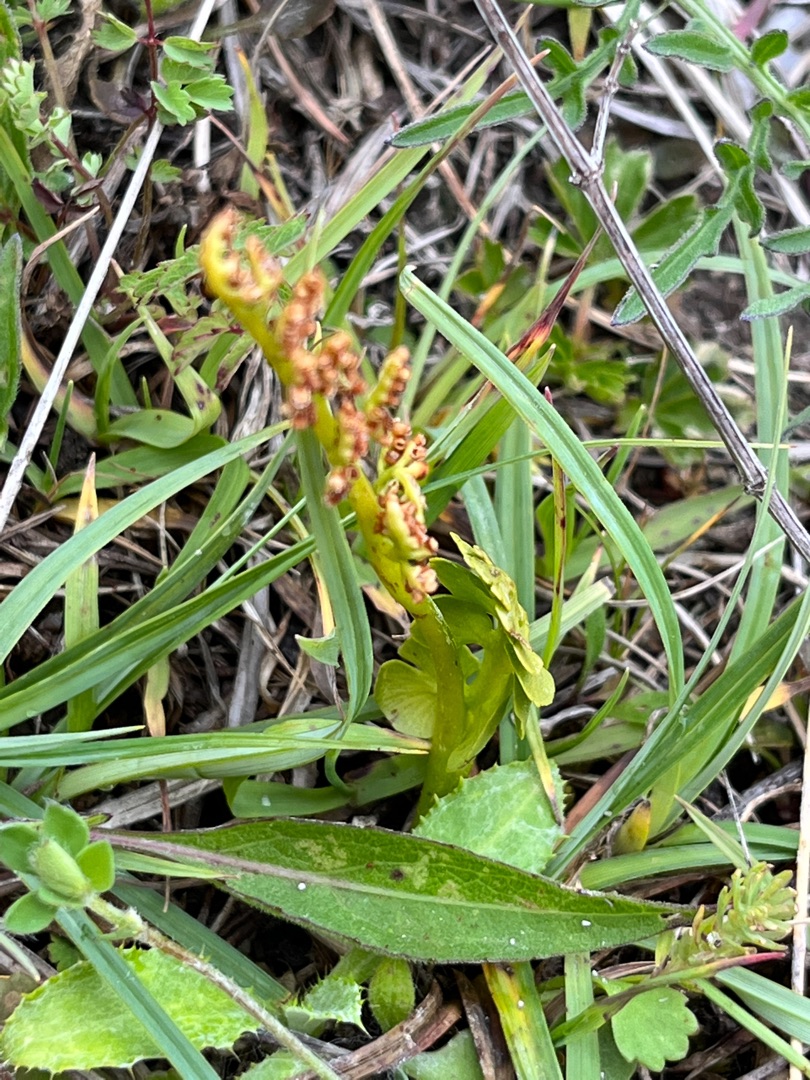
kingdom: Plantae
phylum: Tracheophyta
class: Polypodiopsida
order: Ophioglossales
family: Ophioglossaceae
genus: Botrychium
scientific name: Botrychium lunaria
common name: Almindelig månerude
